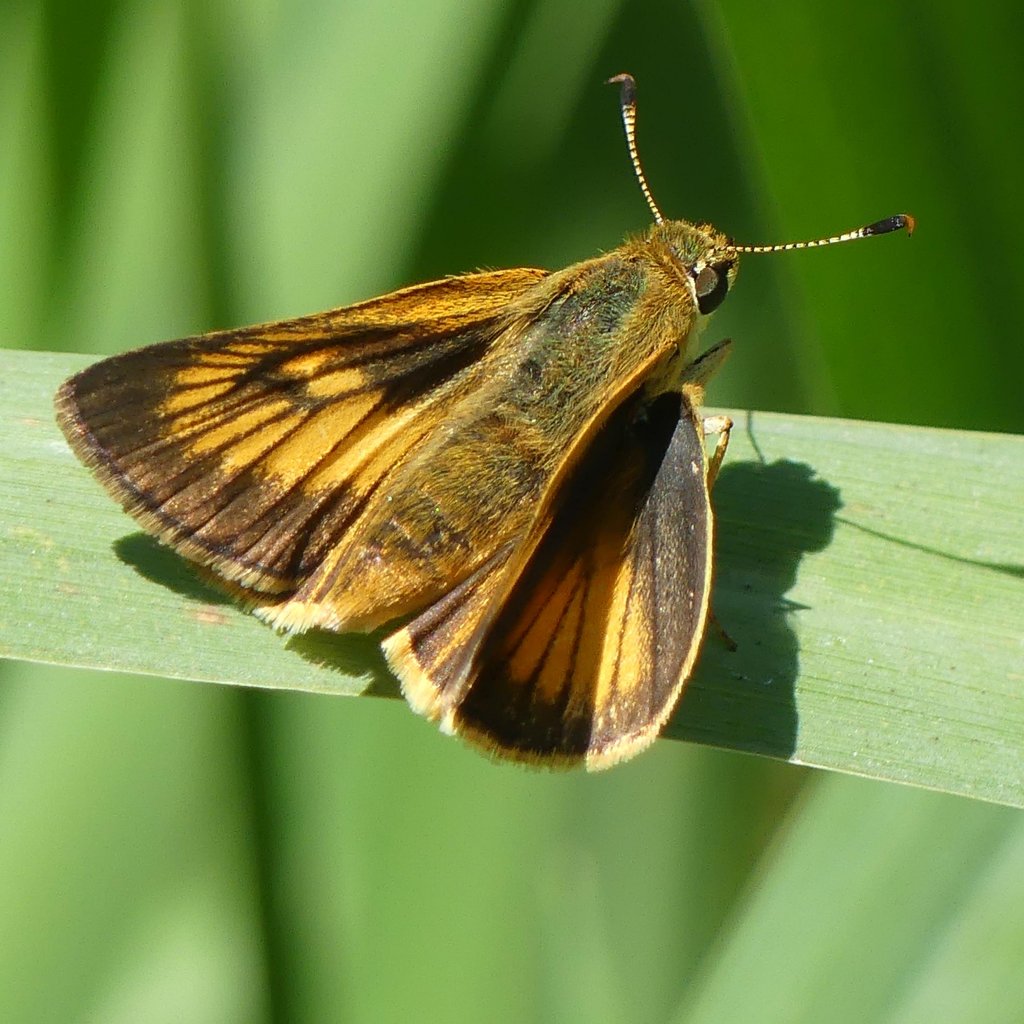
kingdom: Animalia
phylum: Arthropoda
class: Insecta
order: Lepidoptera
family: Hesperiidae
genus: Atrytone
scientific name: Atrytone delaware
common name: Delaware Skipper
